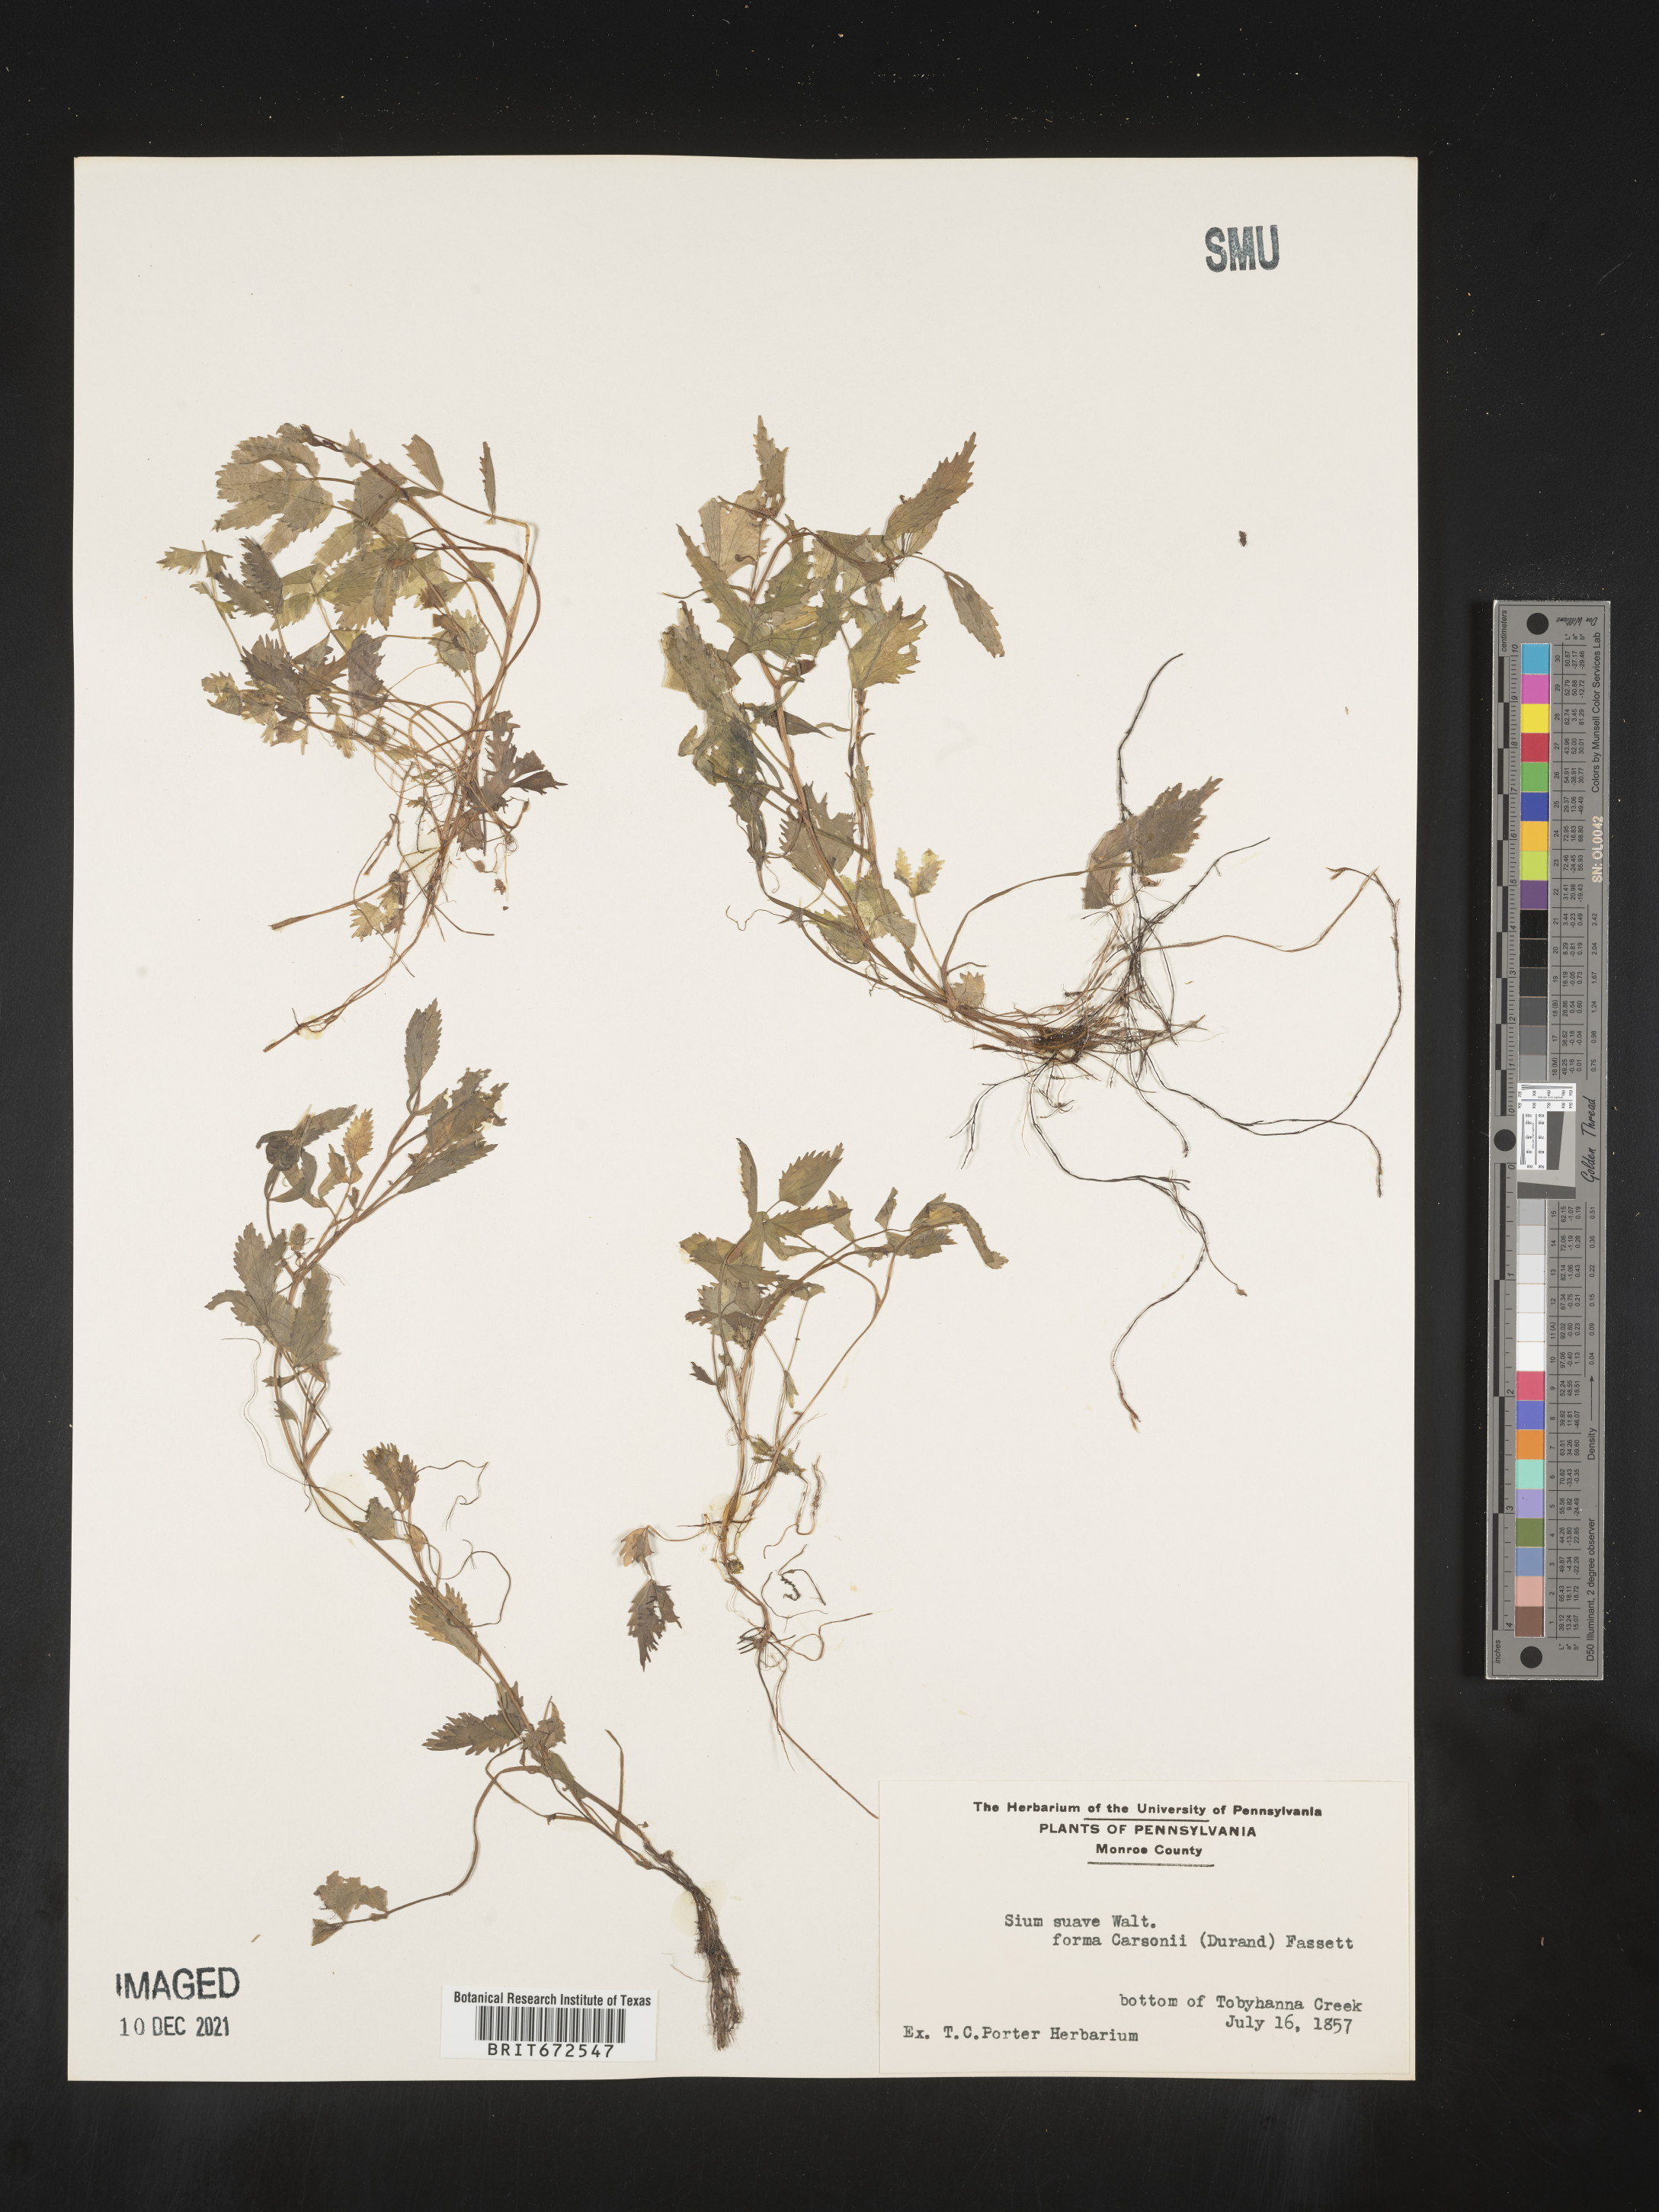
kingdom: Plantae
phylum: Tracheophyta
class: Magnoliopsida
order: Apiales
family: Apiaceae
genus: Sium
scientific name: Sium suave
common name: Hemlock water-parsnip
